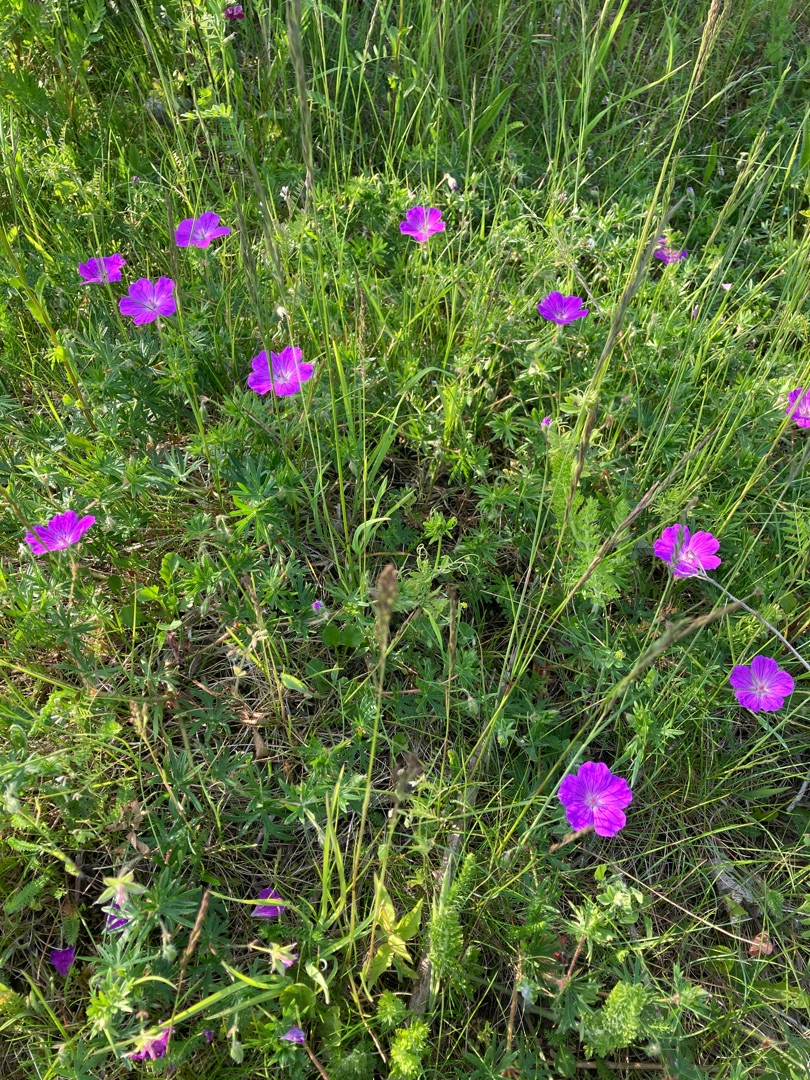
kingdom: Plantae
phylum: Tracheophyta
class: Magnoliopsida
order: Geraniales
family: Geraniaceae
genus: Geranium
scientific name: Geranium sanguineum
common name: Blodrød storkenæb
